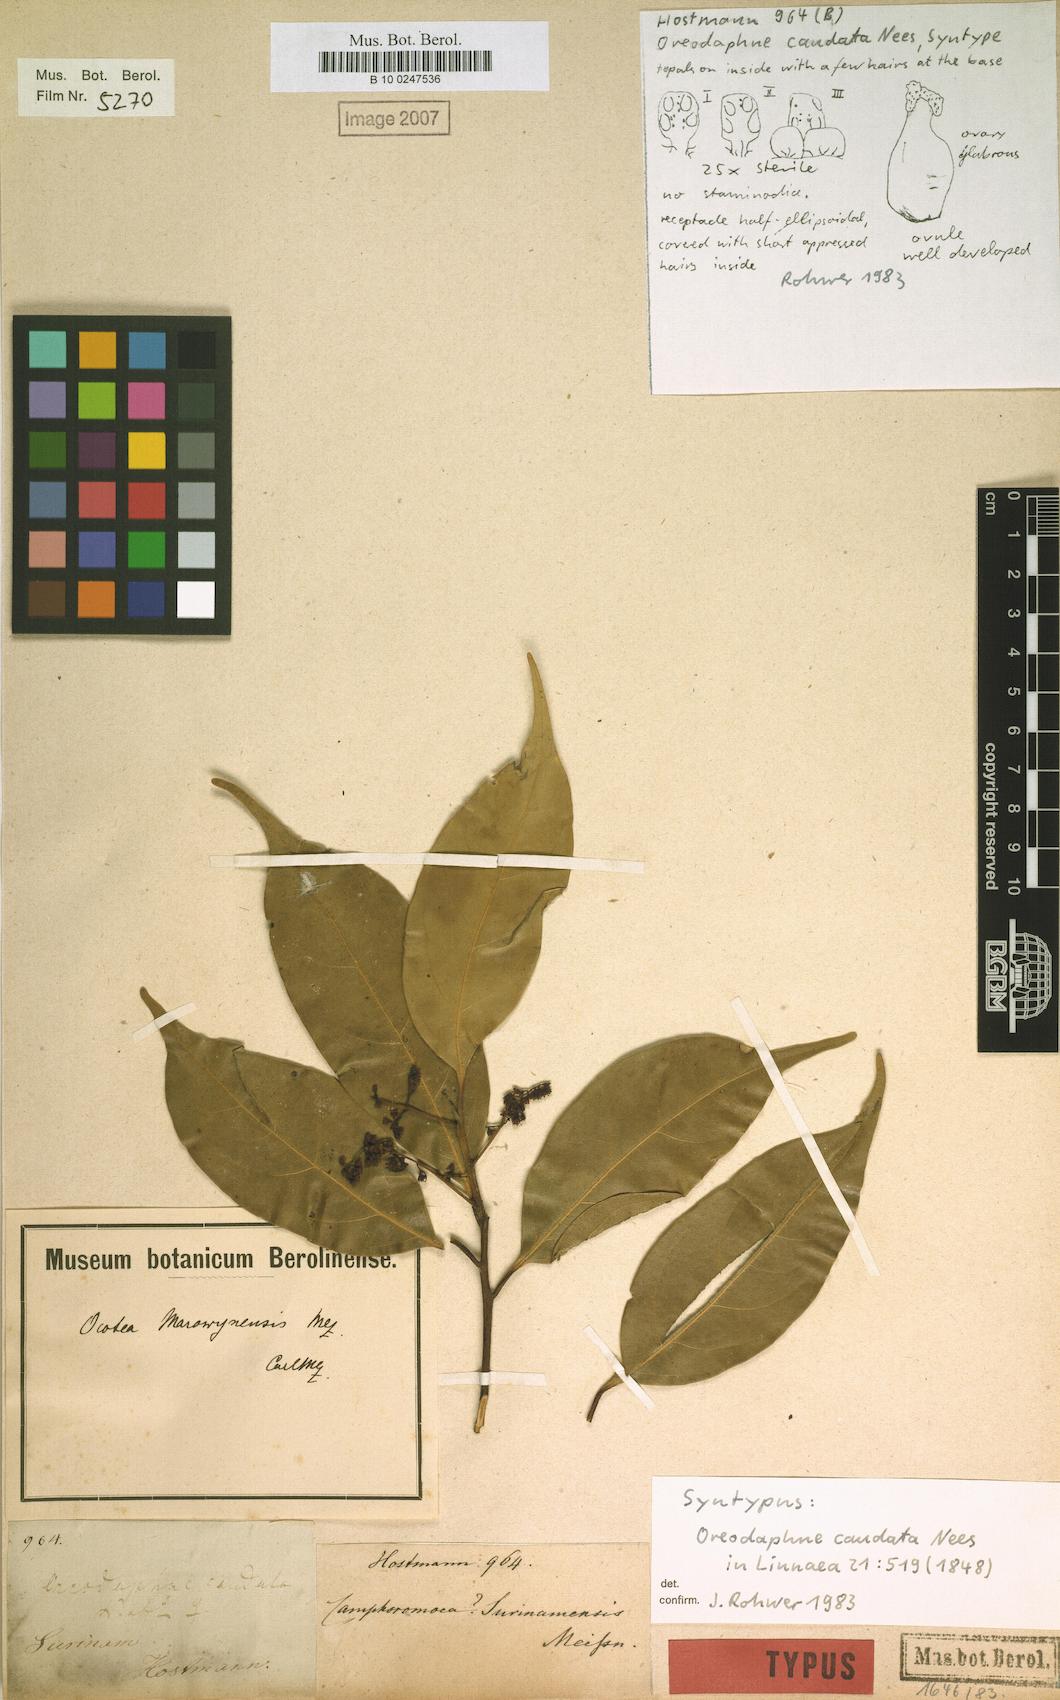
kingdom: Plantae
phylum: Tracheophyta
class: Magnoliopsida
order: Laurales
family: Lauraceae
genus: Ocotea
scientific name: Ocotea leptobotra
